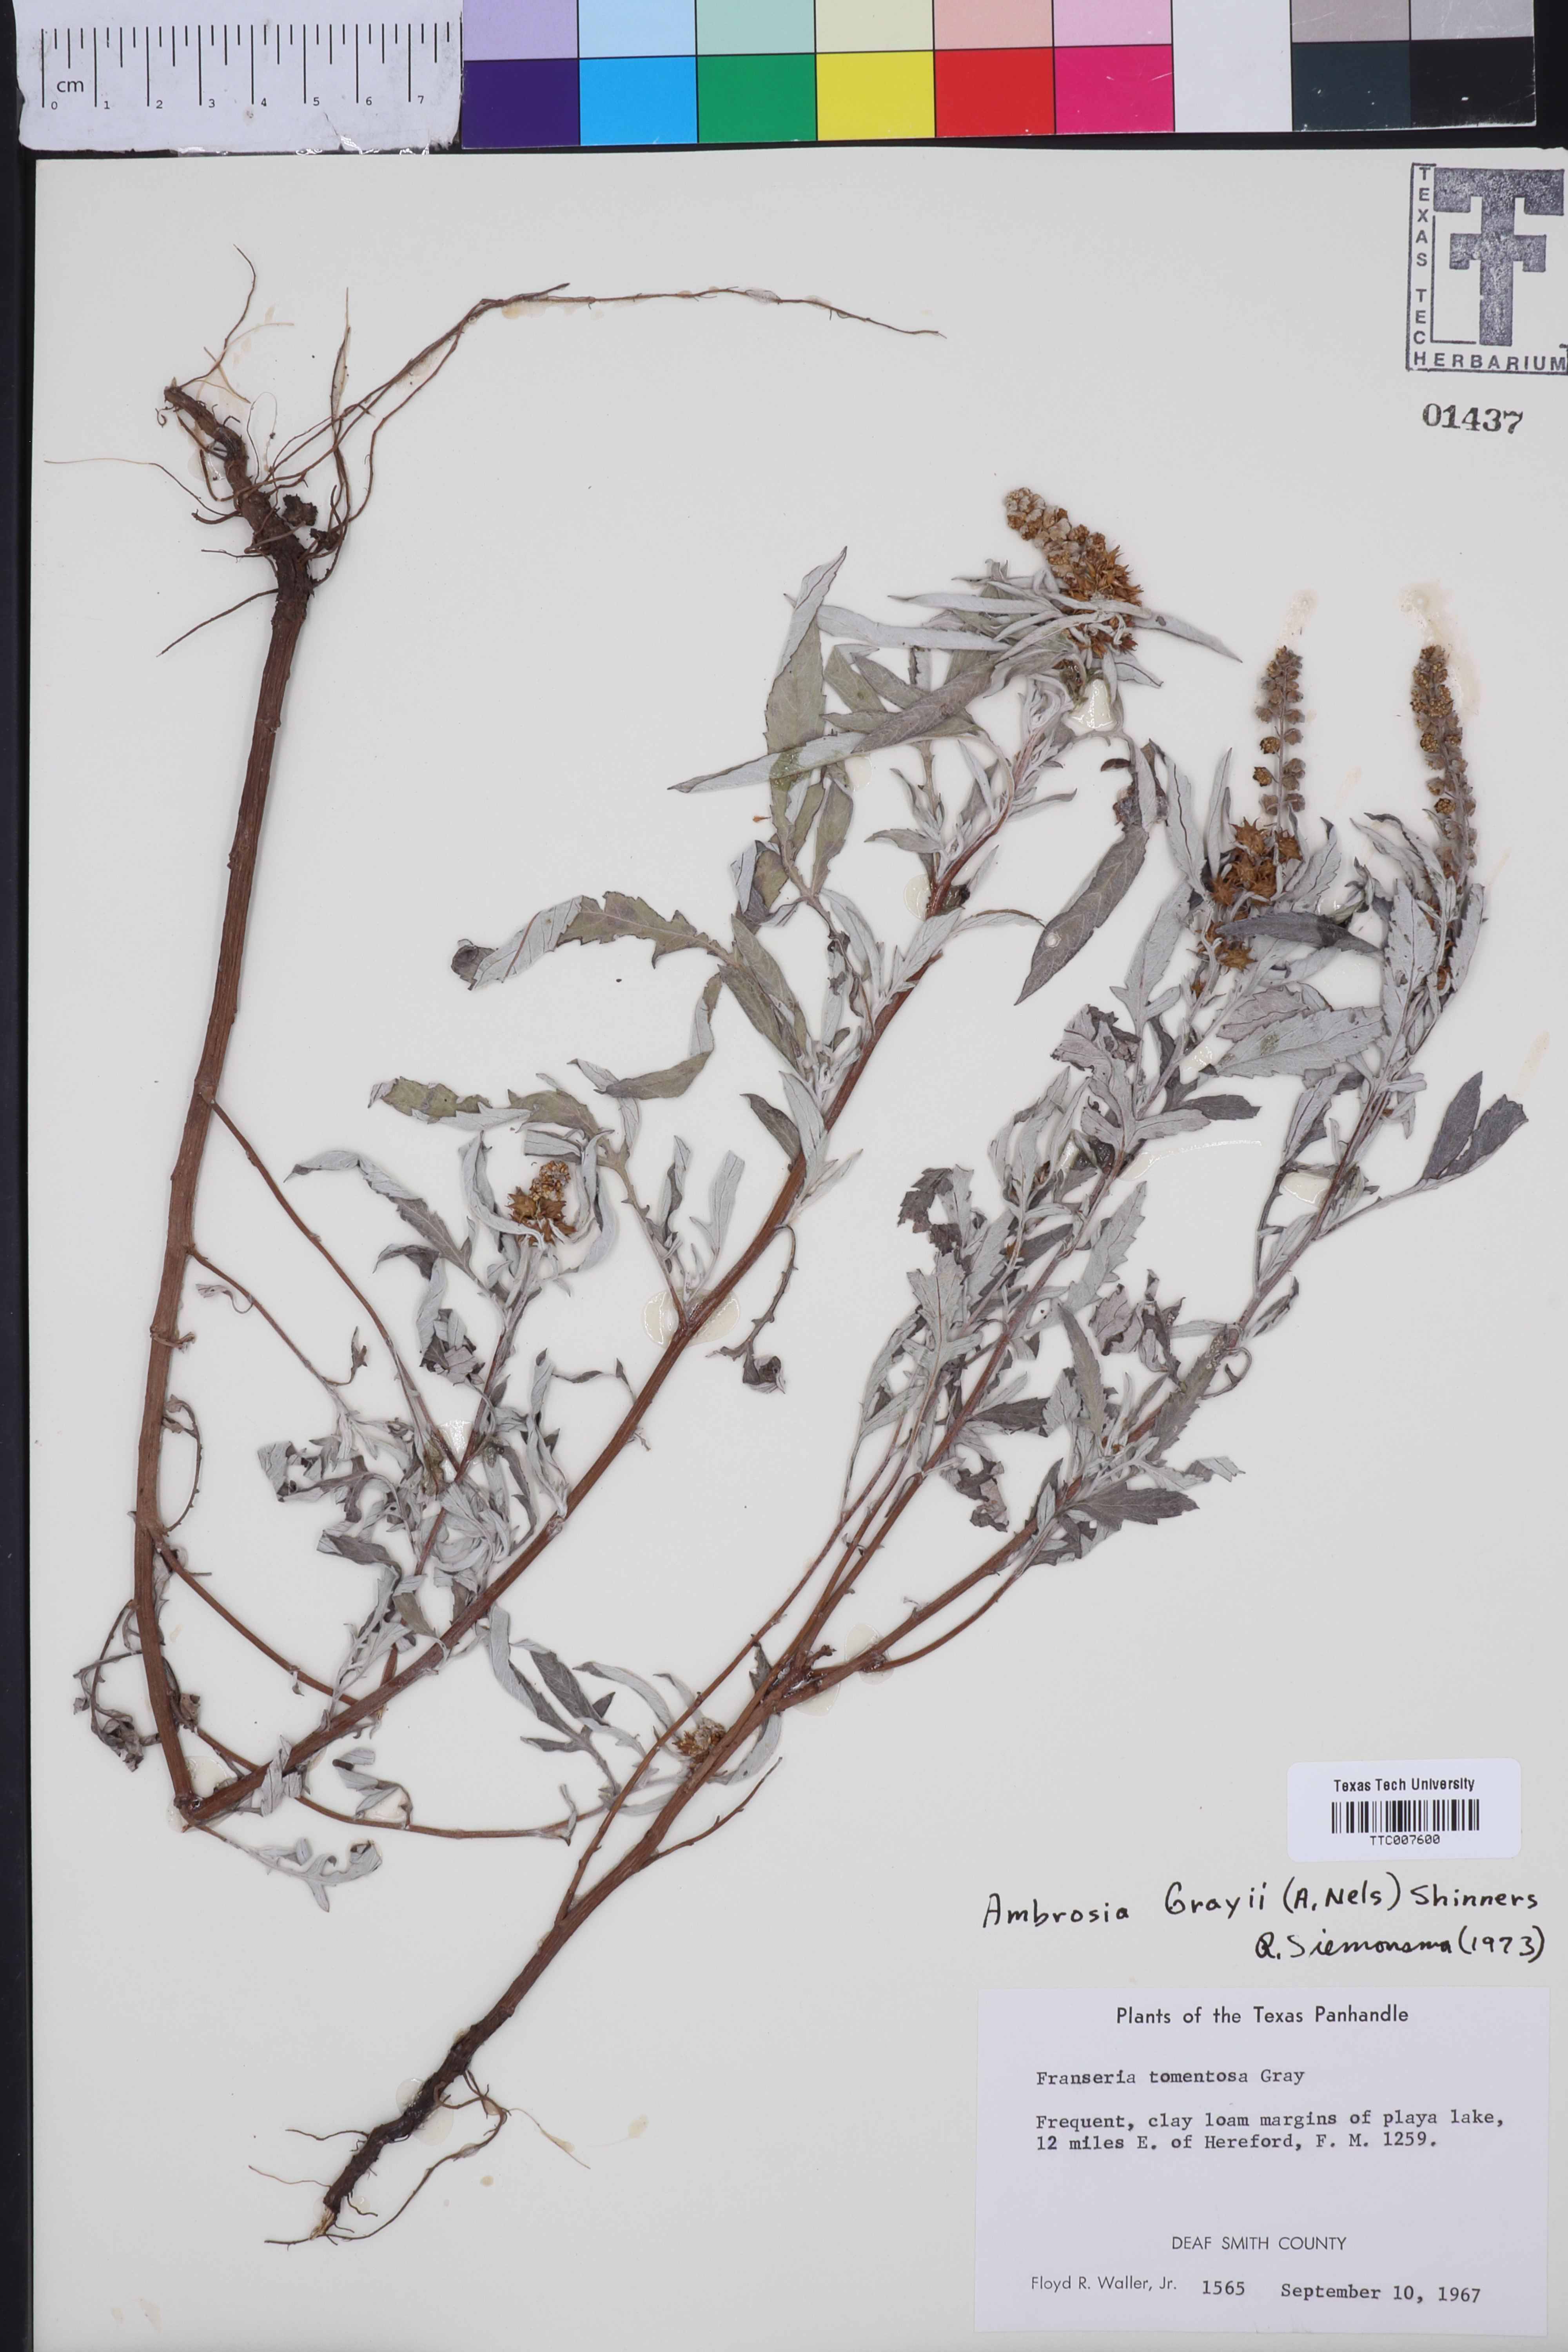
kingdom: Plantae
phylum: Tracheophyta
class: Magnoliopsida
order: Asterales
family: Asteraceae
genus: Ambrosia
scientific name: Ambrosia grayi
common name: Bur ragweed
